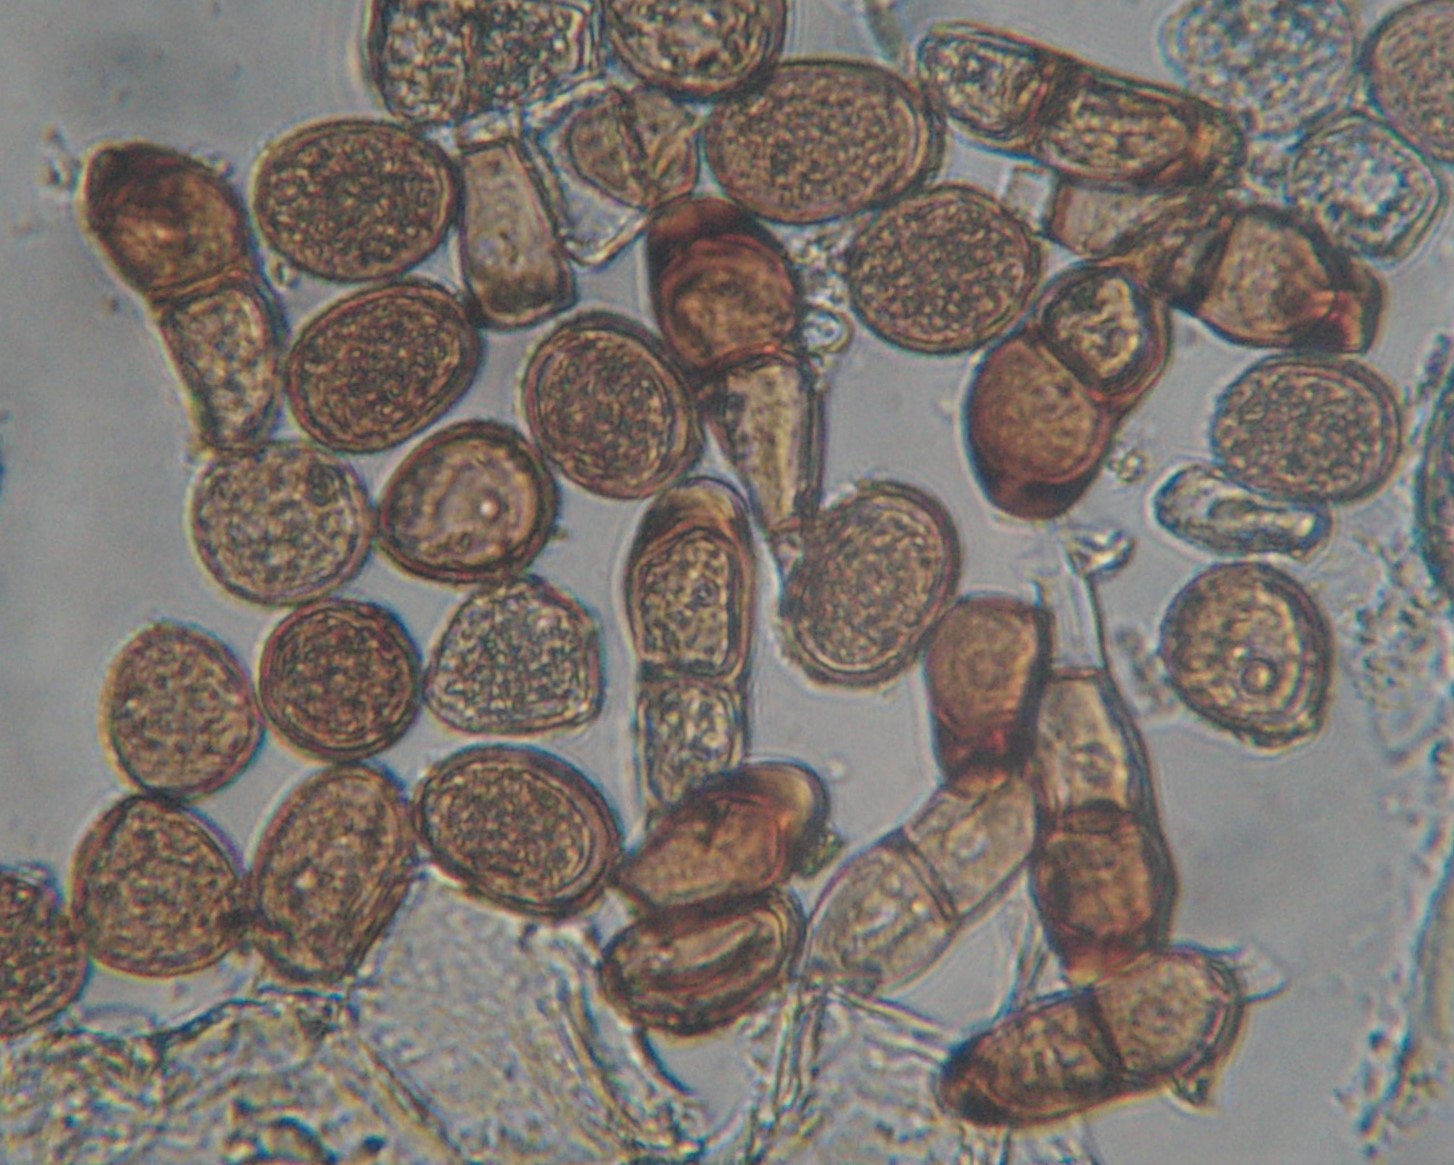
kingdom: Fungi
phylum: Basidiomycota
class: Pucciniomycetes
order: Pucciniales
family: Pucciniaceae
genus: Puccinia
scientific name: Puccinia polygoni-amphibii
